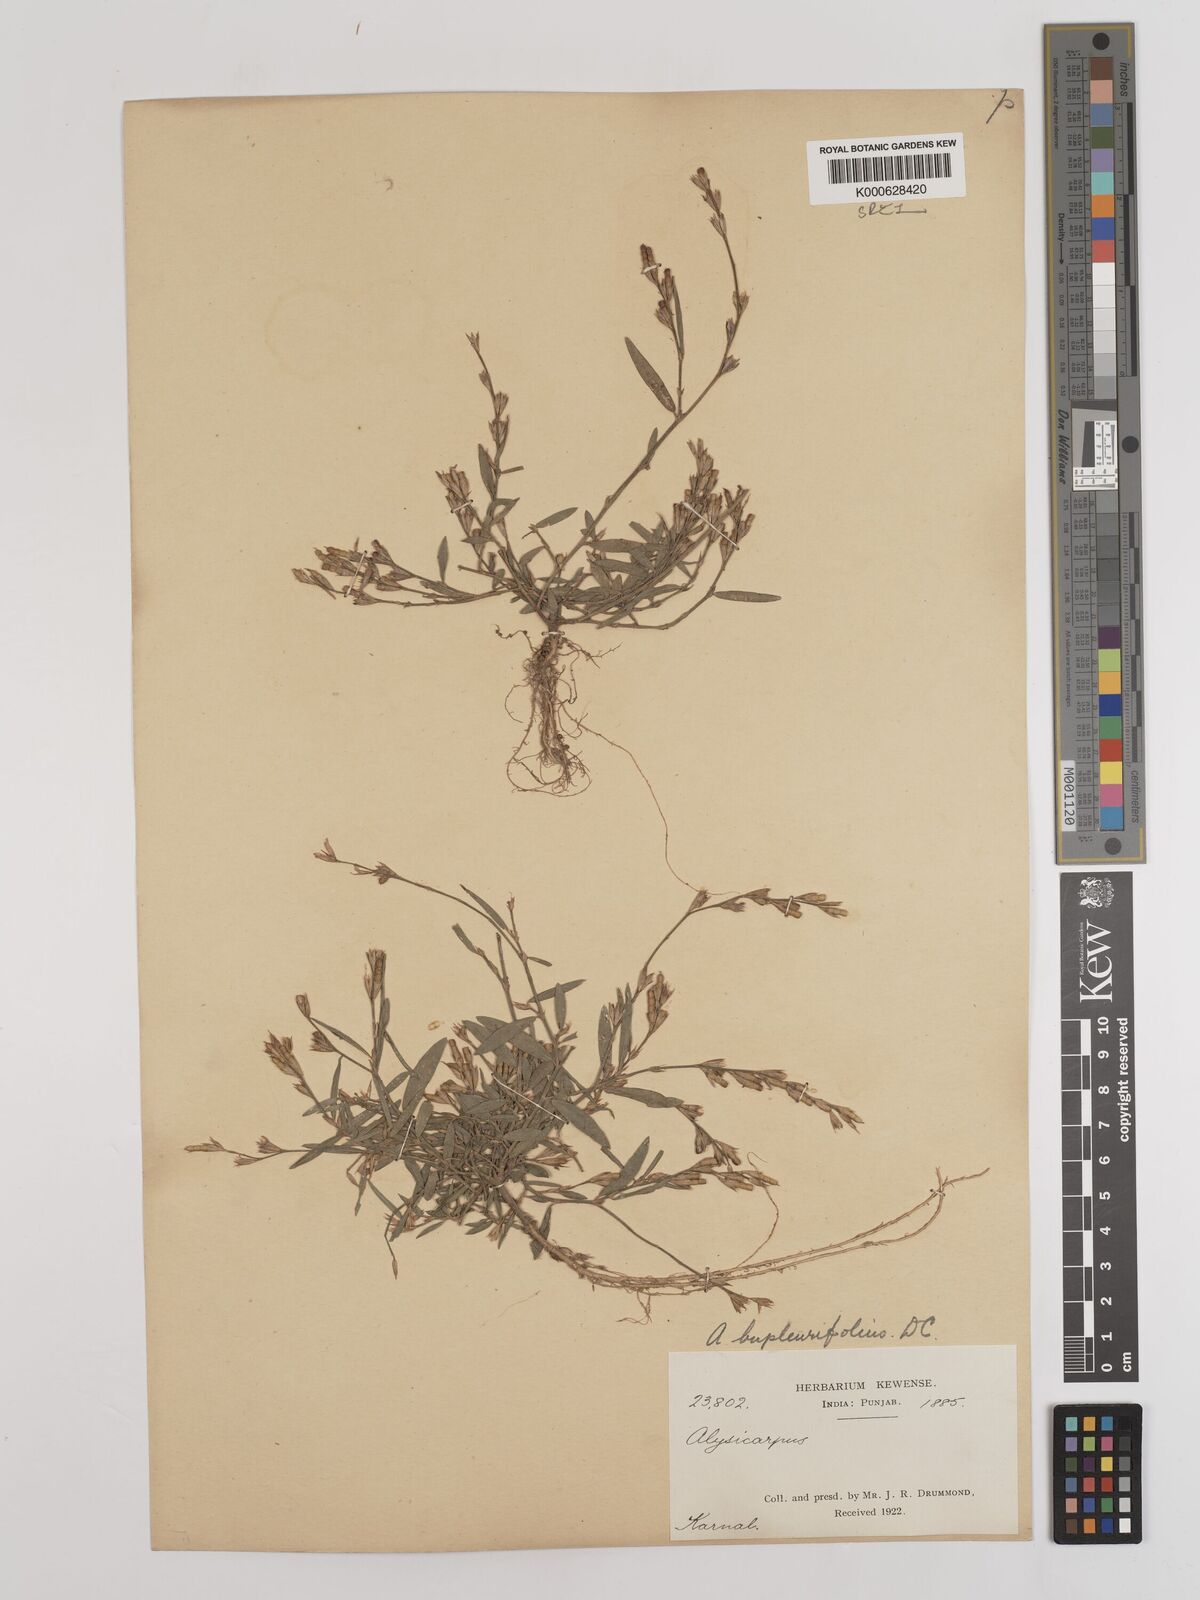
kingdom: Plantae
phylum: Tracheophyta
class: Magnoliopsida
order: Fabales
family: Fabaceae
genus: Alysicarpus
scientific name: Alysicarpus bupleurifolius
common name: Sweet alys
